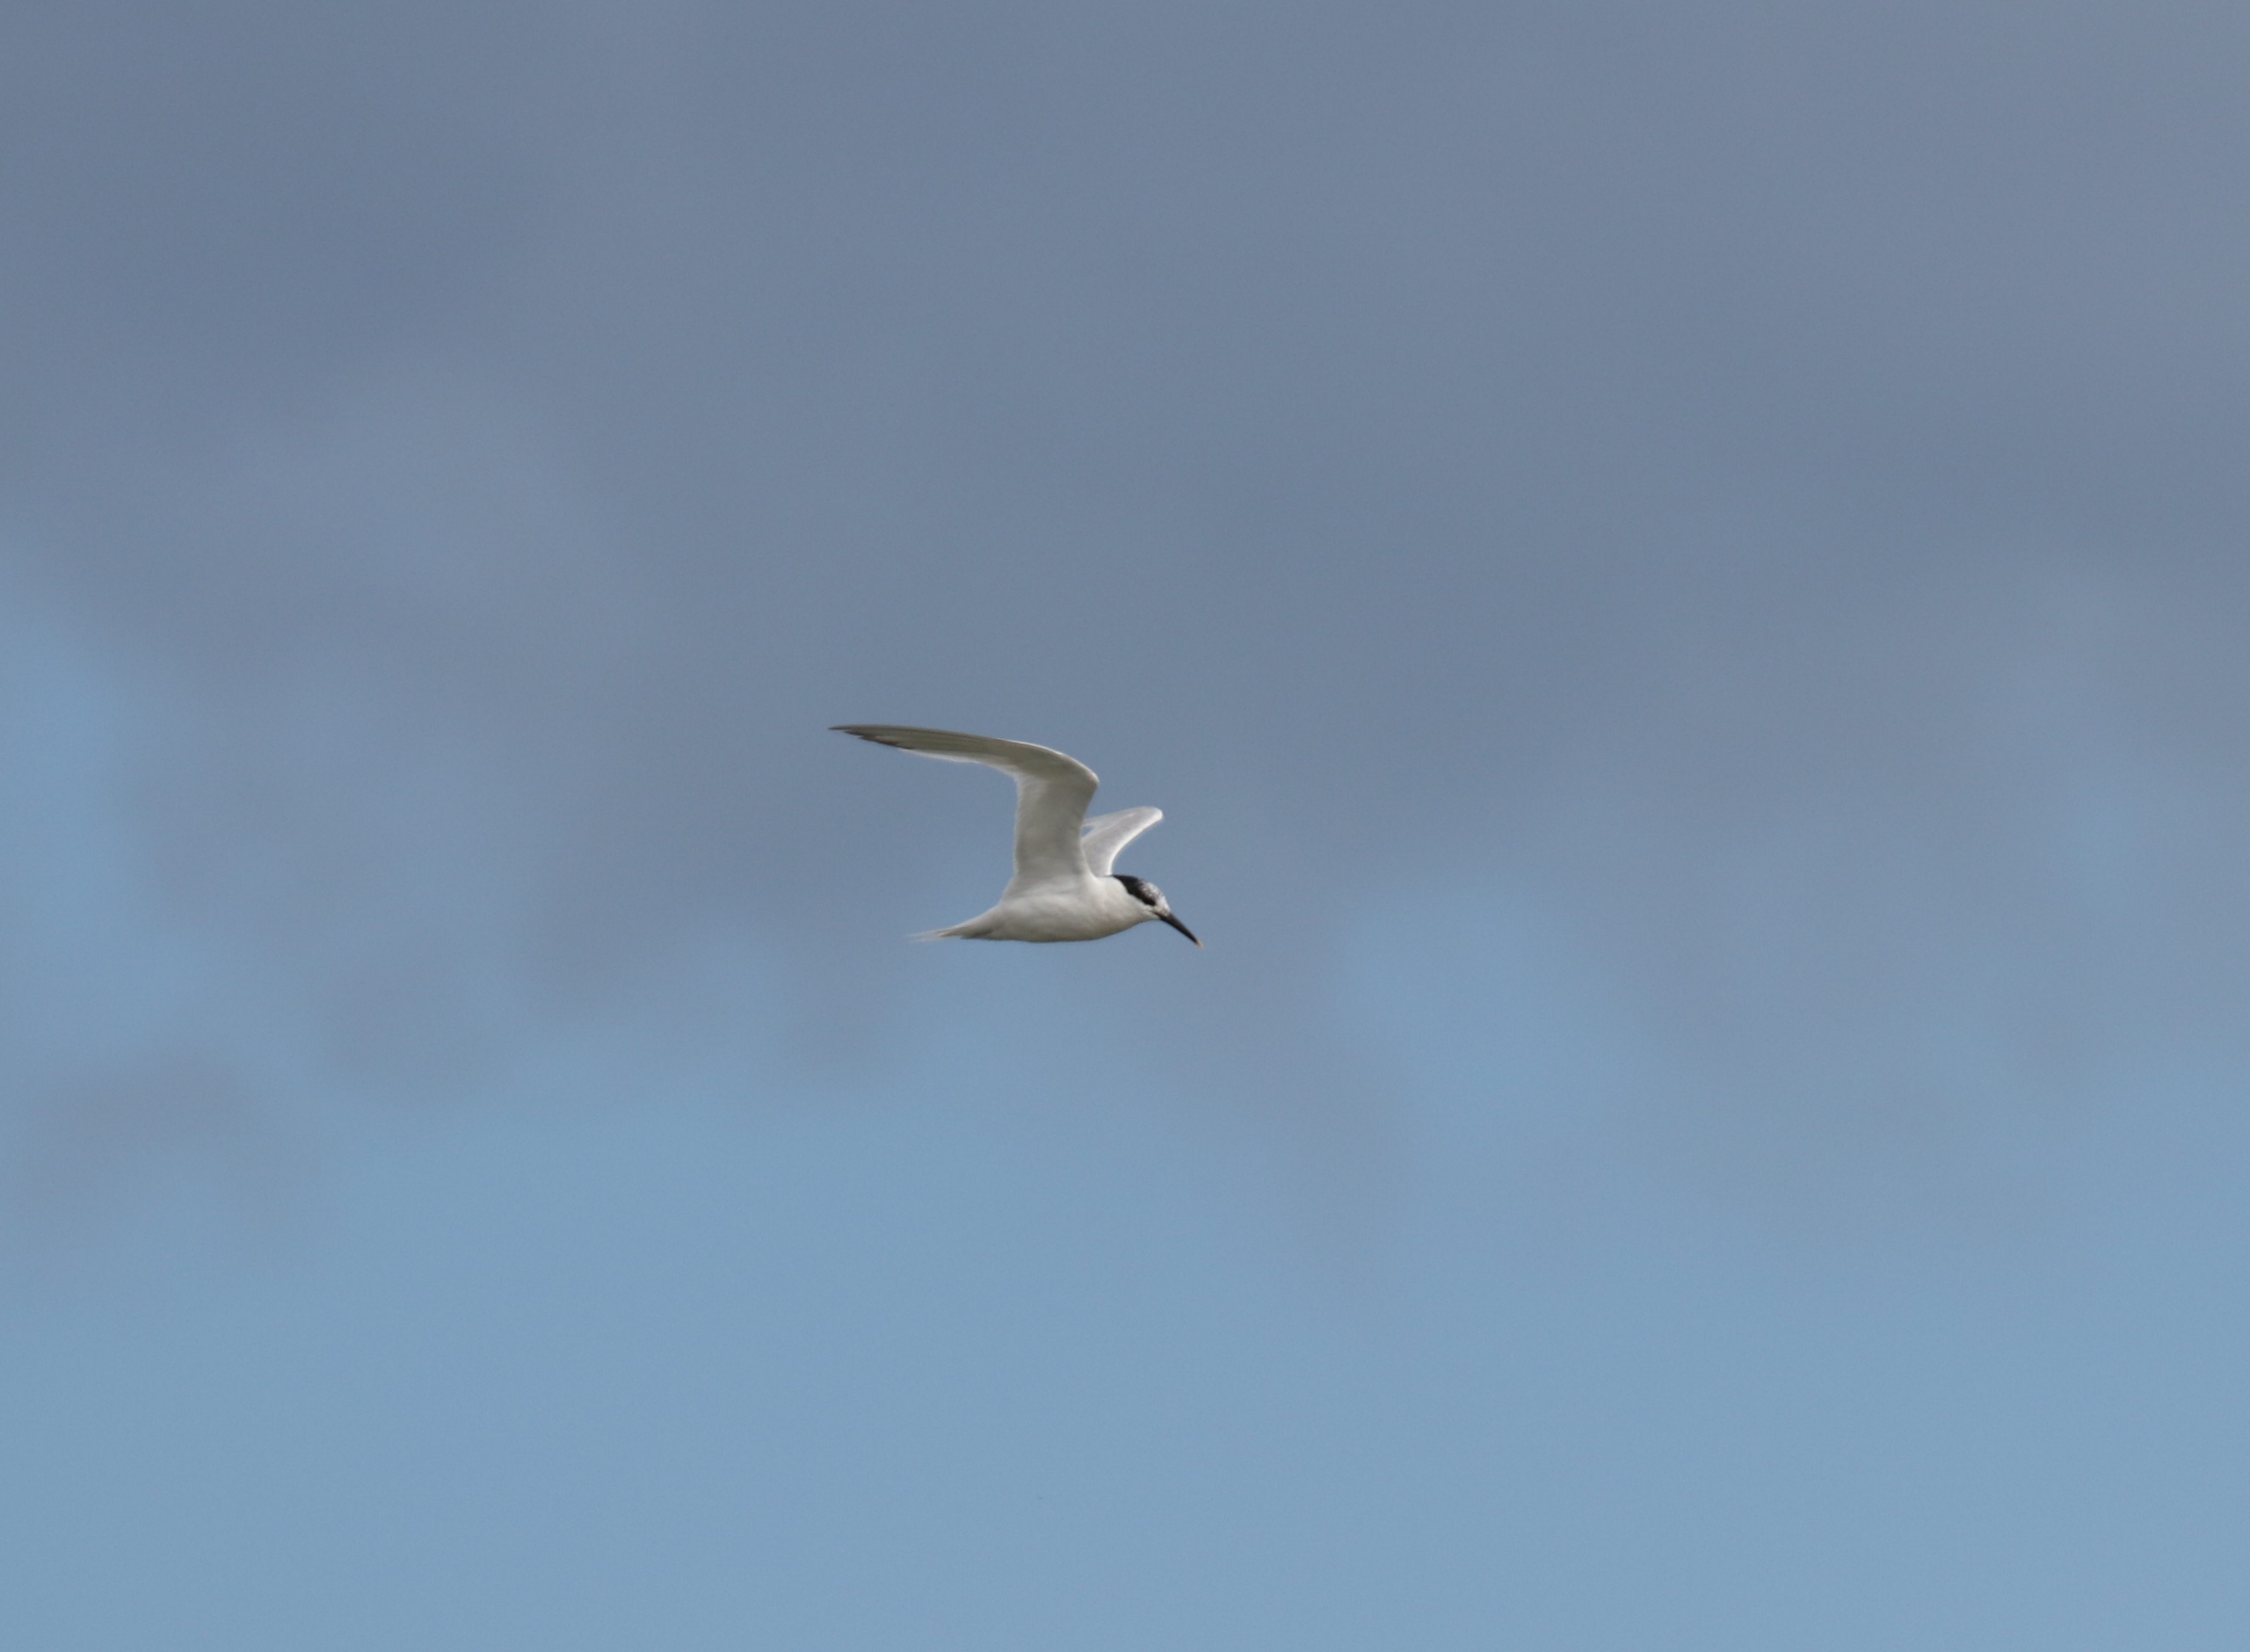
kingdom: Animalia
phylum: Chordata
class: Aves
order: Charadriiformes
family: Laridae
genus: Thalasseus
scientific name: Thalasseus sandvicensis
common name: Splitterne
